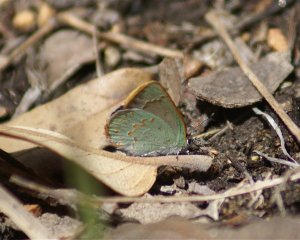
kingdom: Animalia
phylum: Arthropoda
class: Insecta
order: Lepidoptera
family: Lycaenidae
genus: Erora
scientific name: Erora quaderna
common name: Arizona Hairstreak
